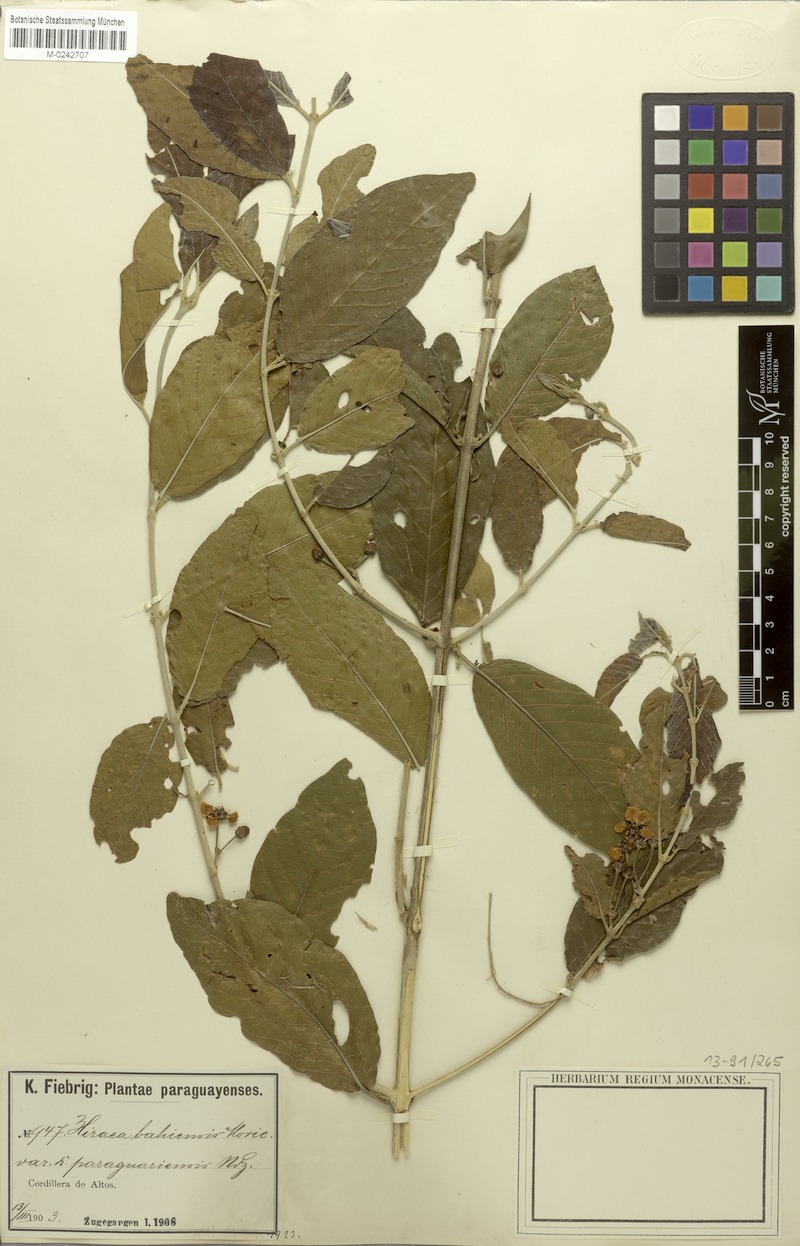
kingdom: Plantae
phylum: Tracheophyta
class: Magnoliopsida
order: Malpighiales
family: Malpighiaceae
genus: Hiraea
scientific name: Hiraea fagifolia
